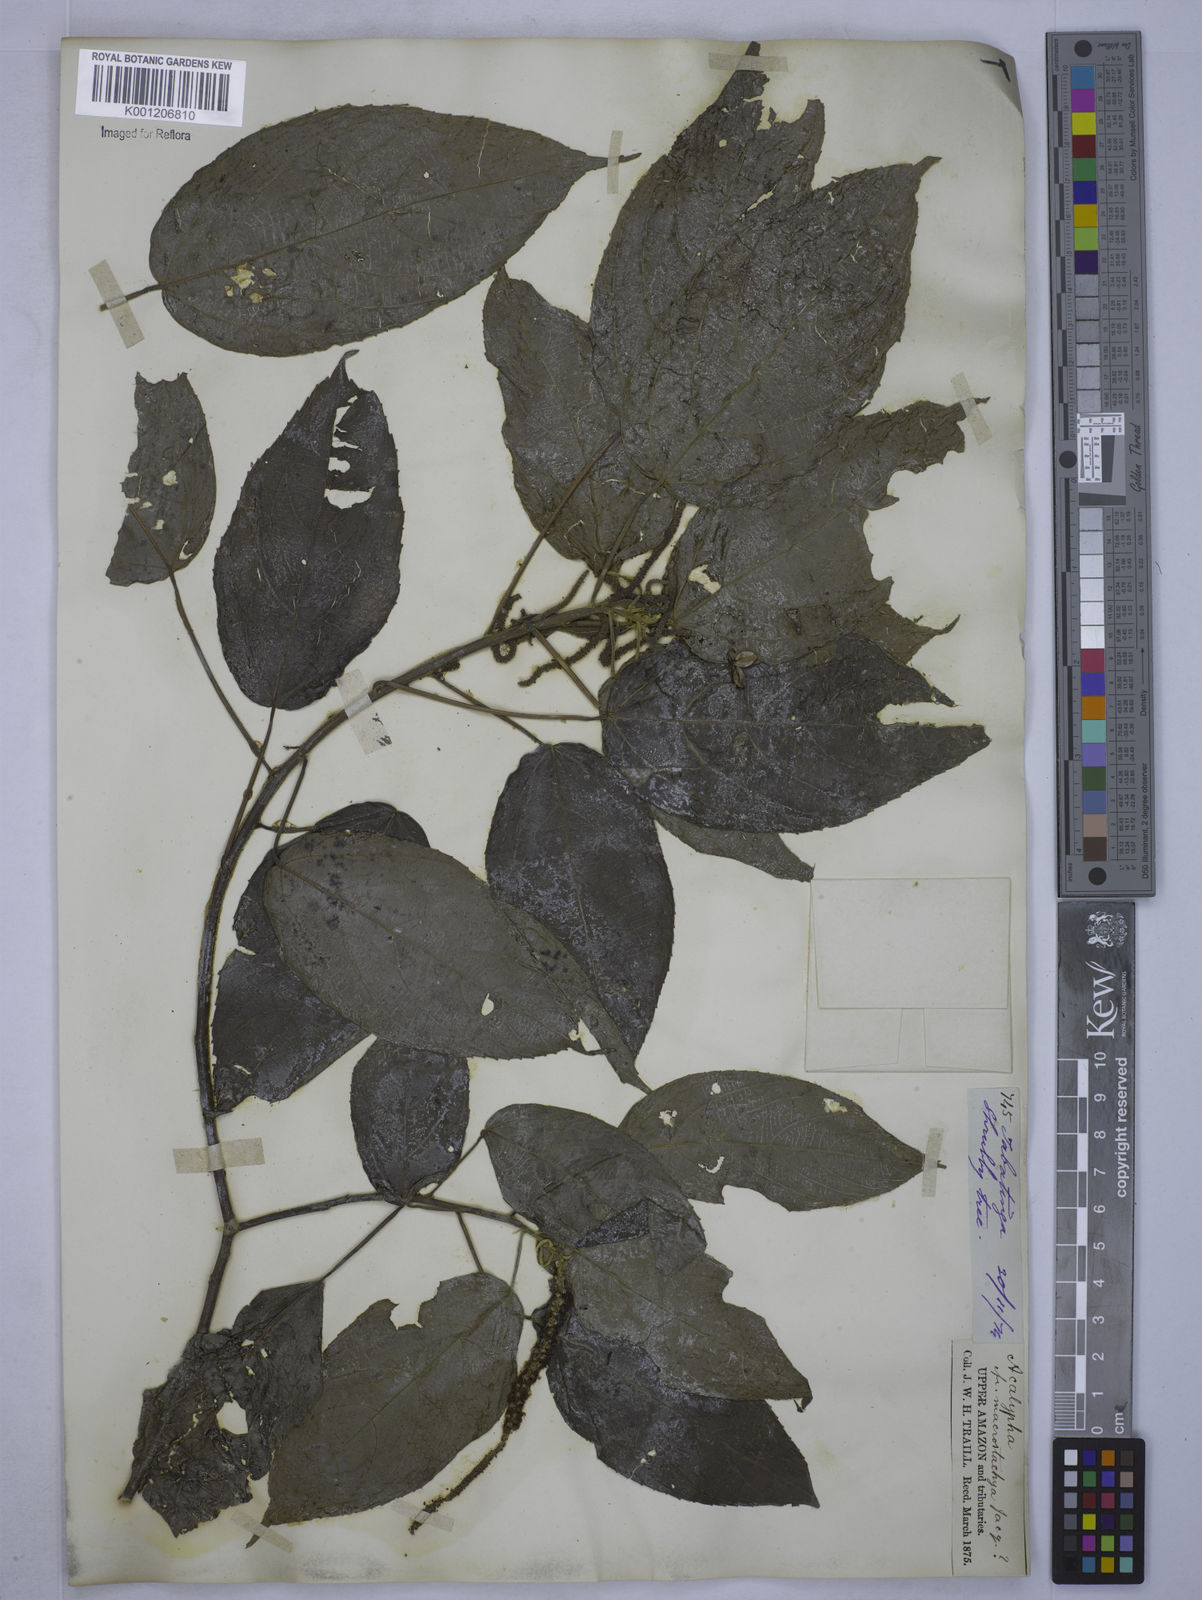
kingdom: Plantae
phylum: Tracheophyta
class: Magnoliopsida
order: Malpighiales
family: Euphorbiaceae
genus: Acalypha
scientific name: Acalypha
